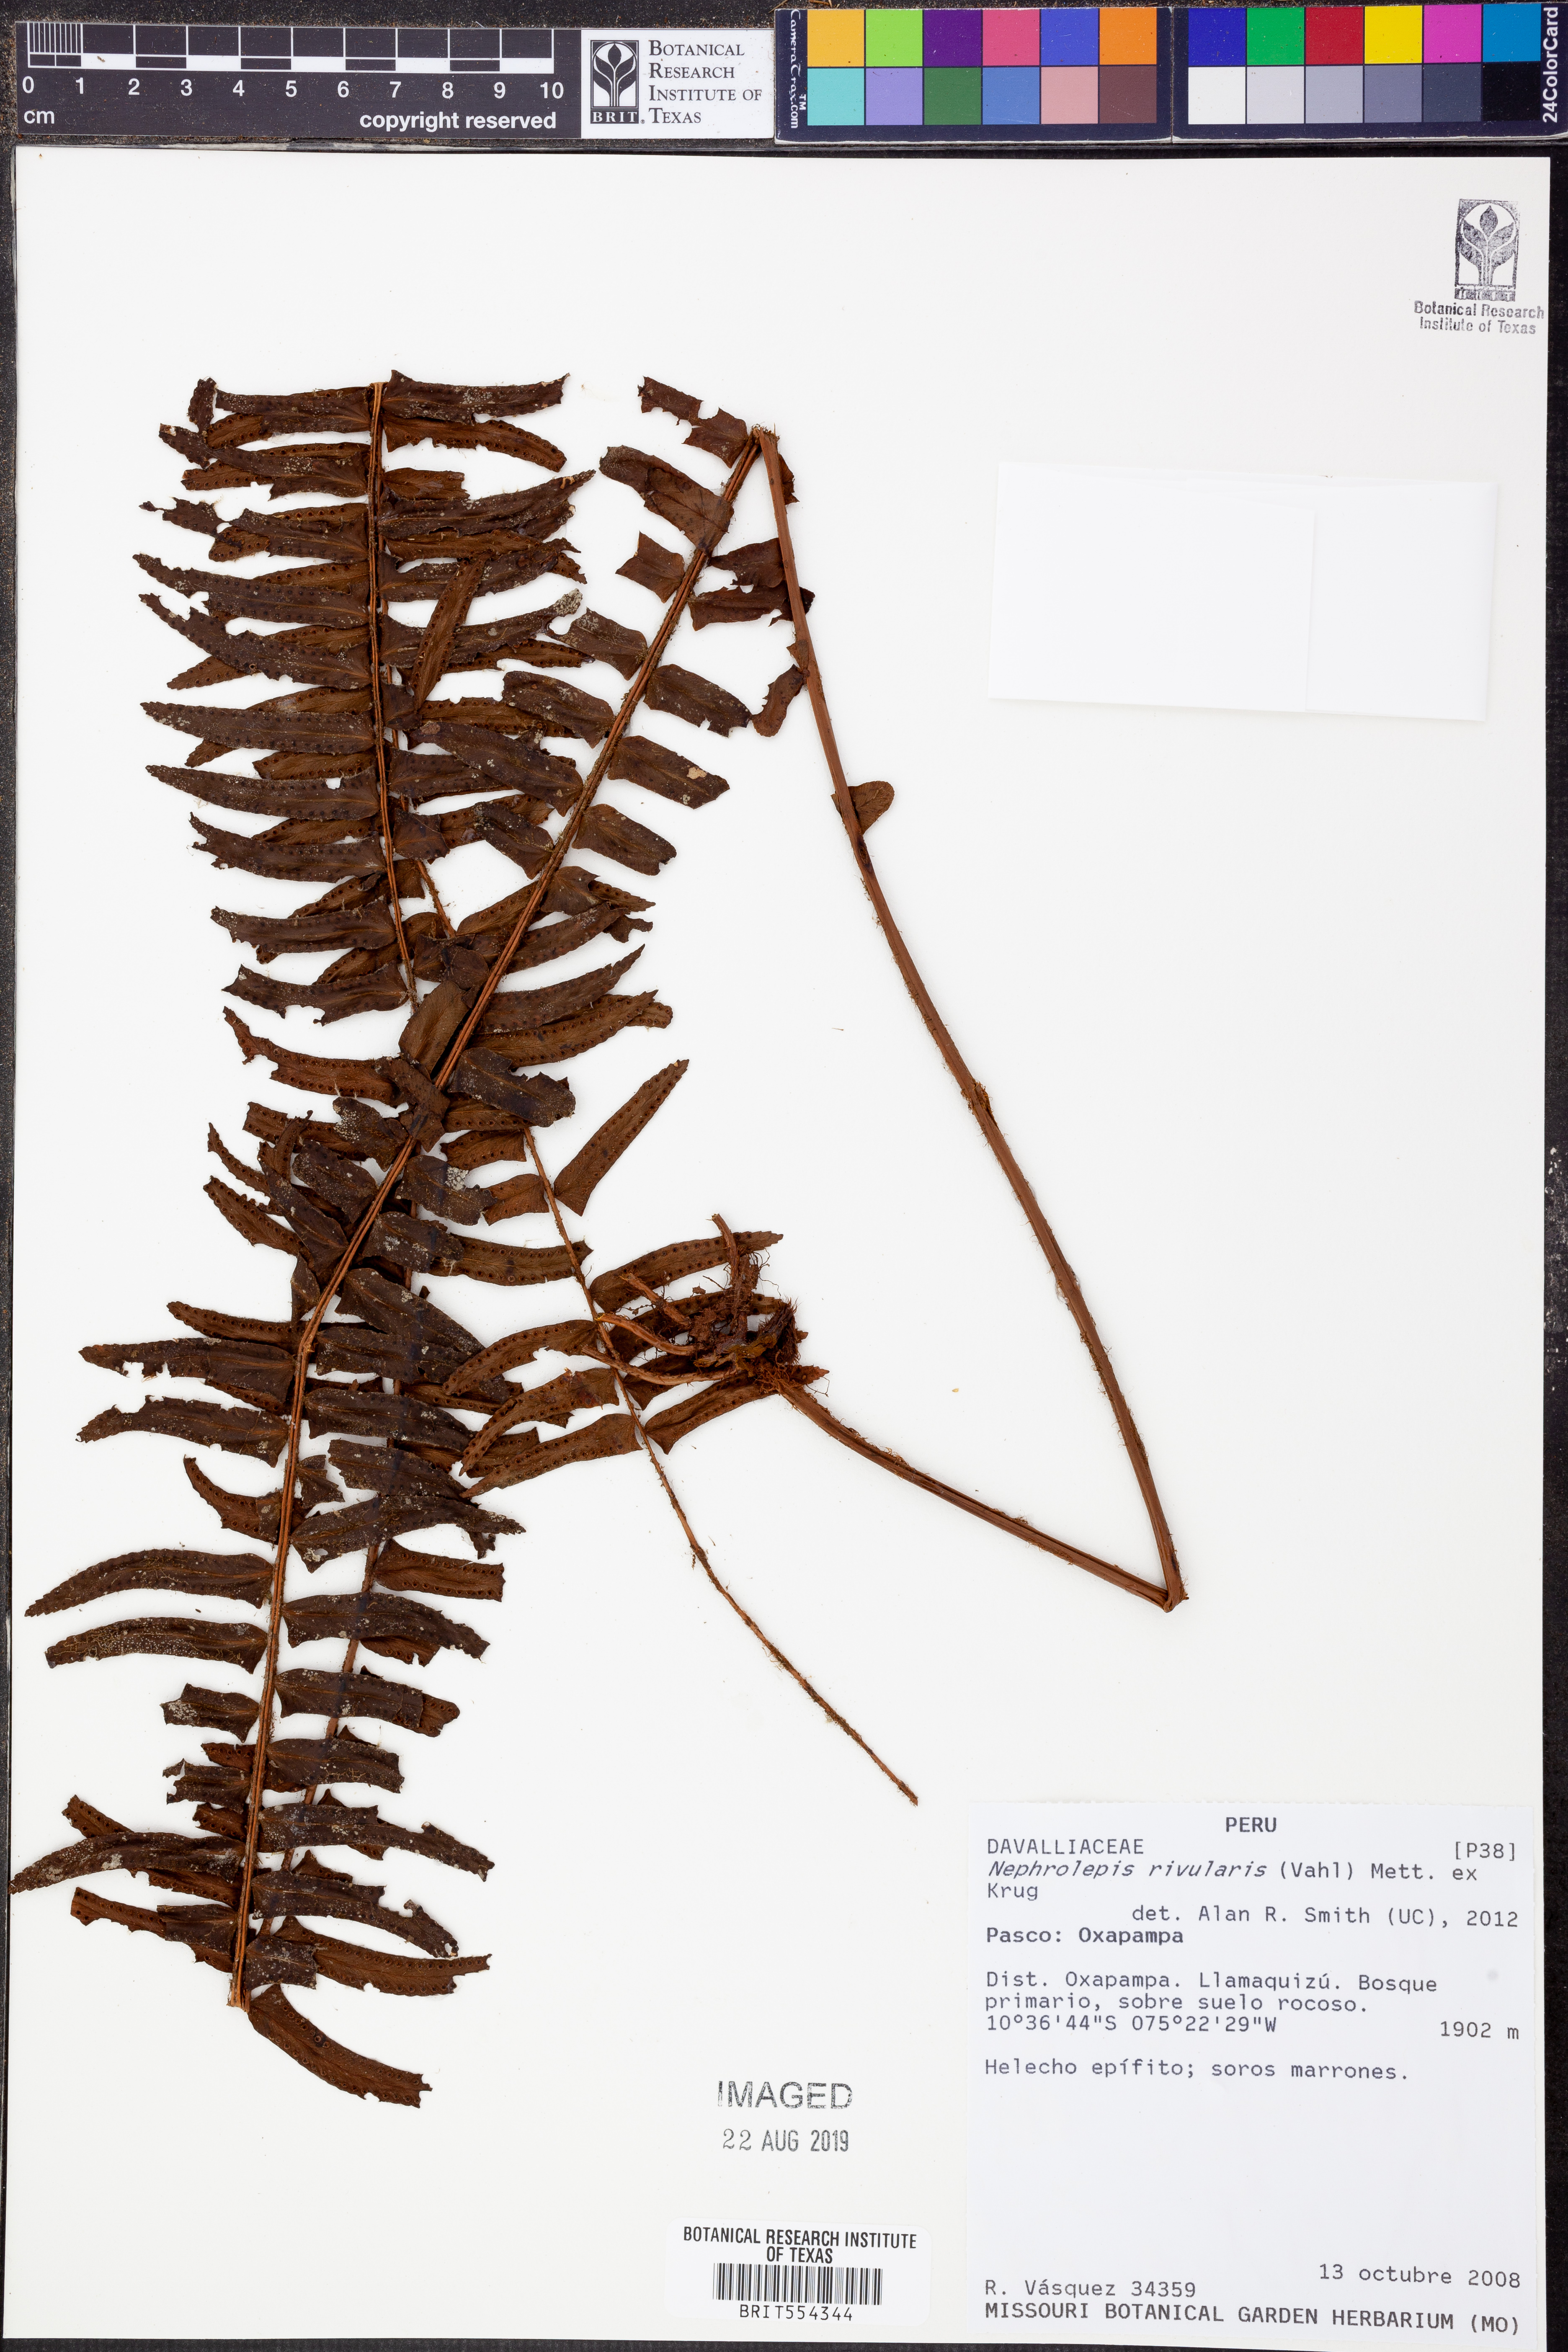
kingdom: Plantae
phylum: Tracheophyta
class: Polypodiopsida
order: Polypodiales
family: Nephrolepidaceae
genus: Nephrolepis
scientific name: Nephrolepis rivularis
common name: Streamside swordfern
